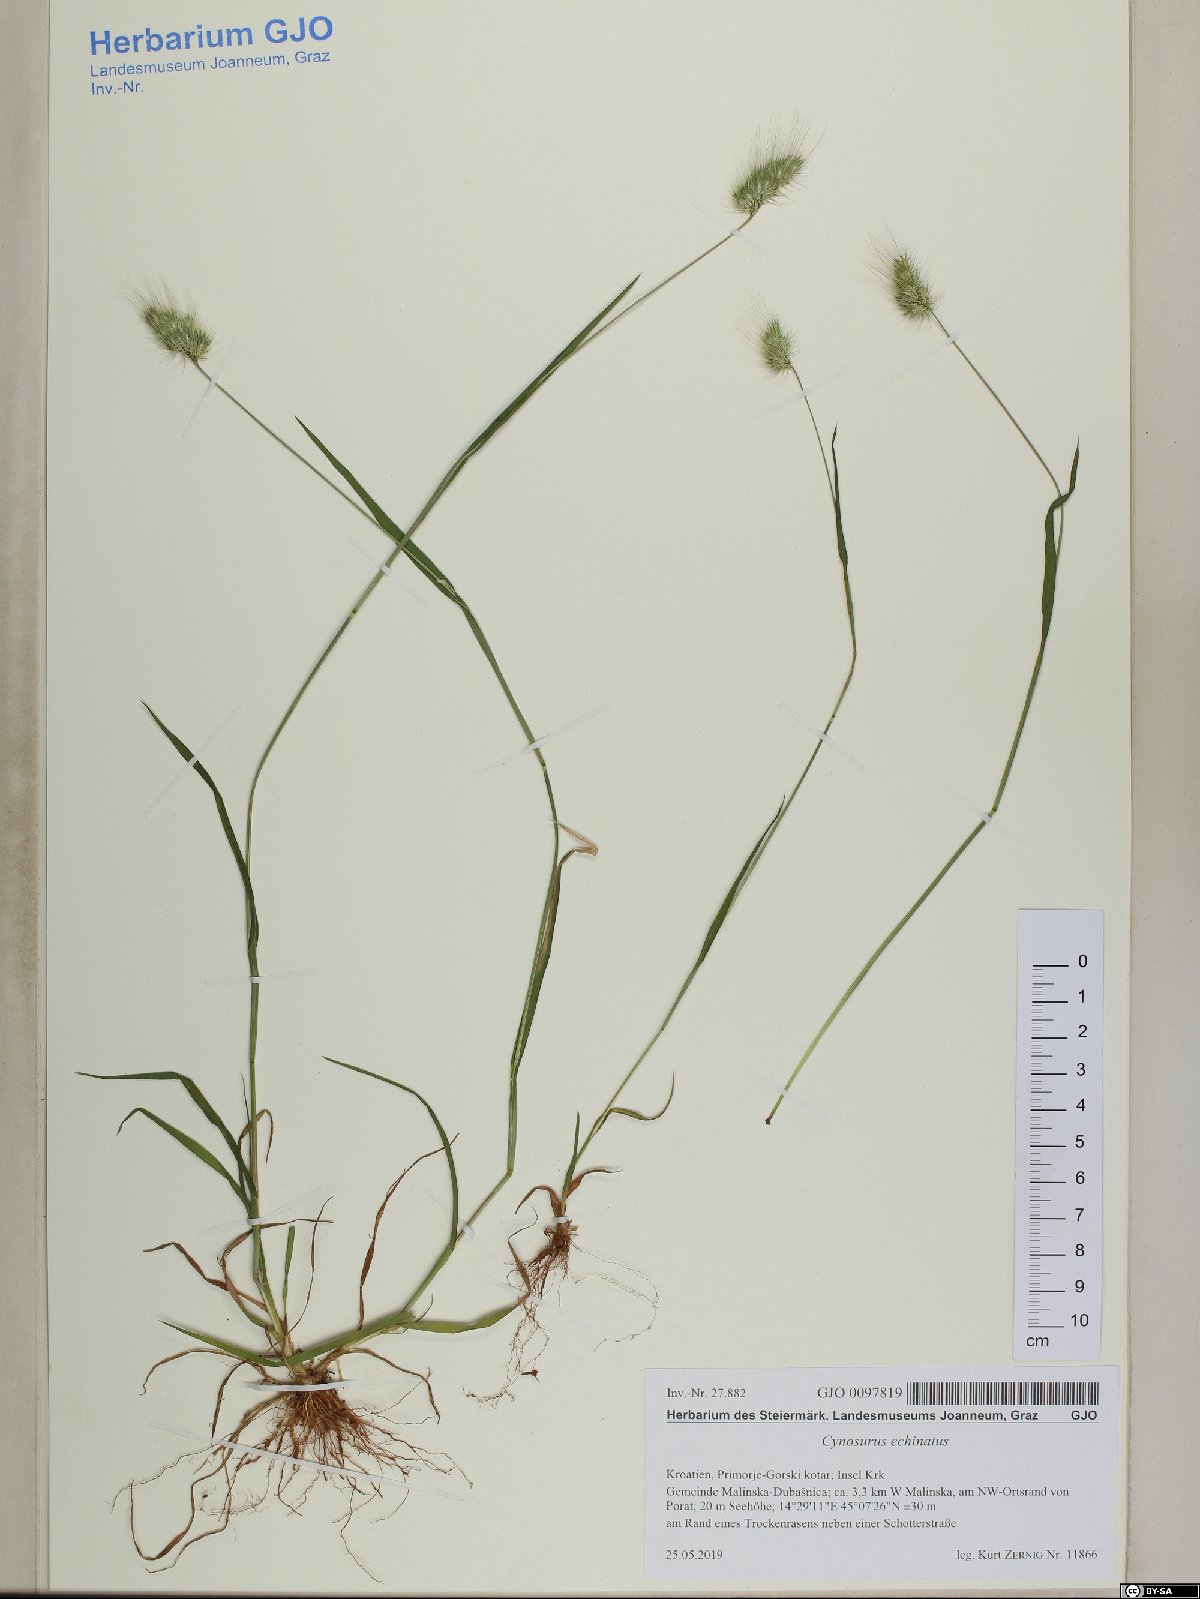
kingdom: Plantae
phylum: Tracheophyta
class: Liliopsida
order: Poales
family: Poaceae
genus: Cynosurus
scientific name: Cynosurus echinatus
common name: Rough dog's-tail
